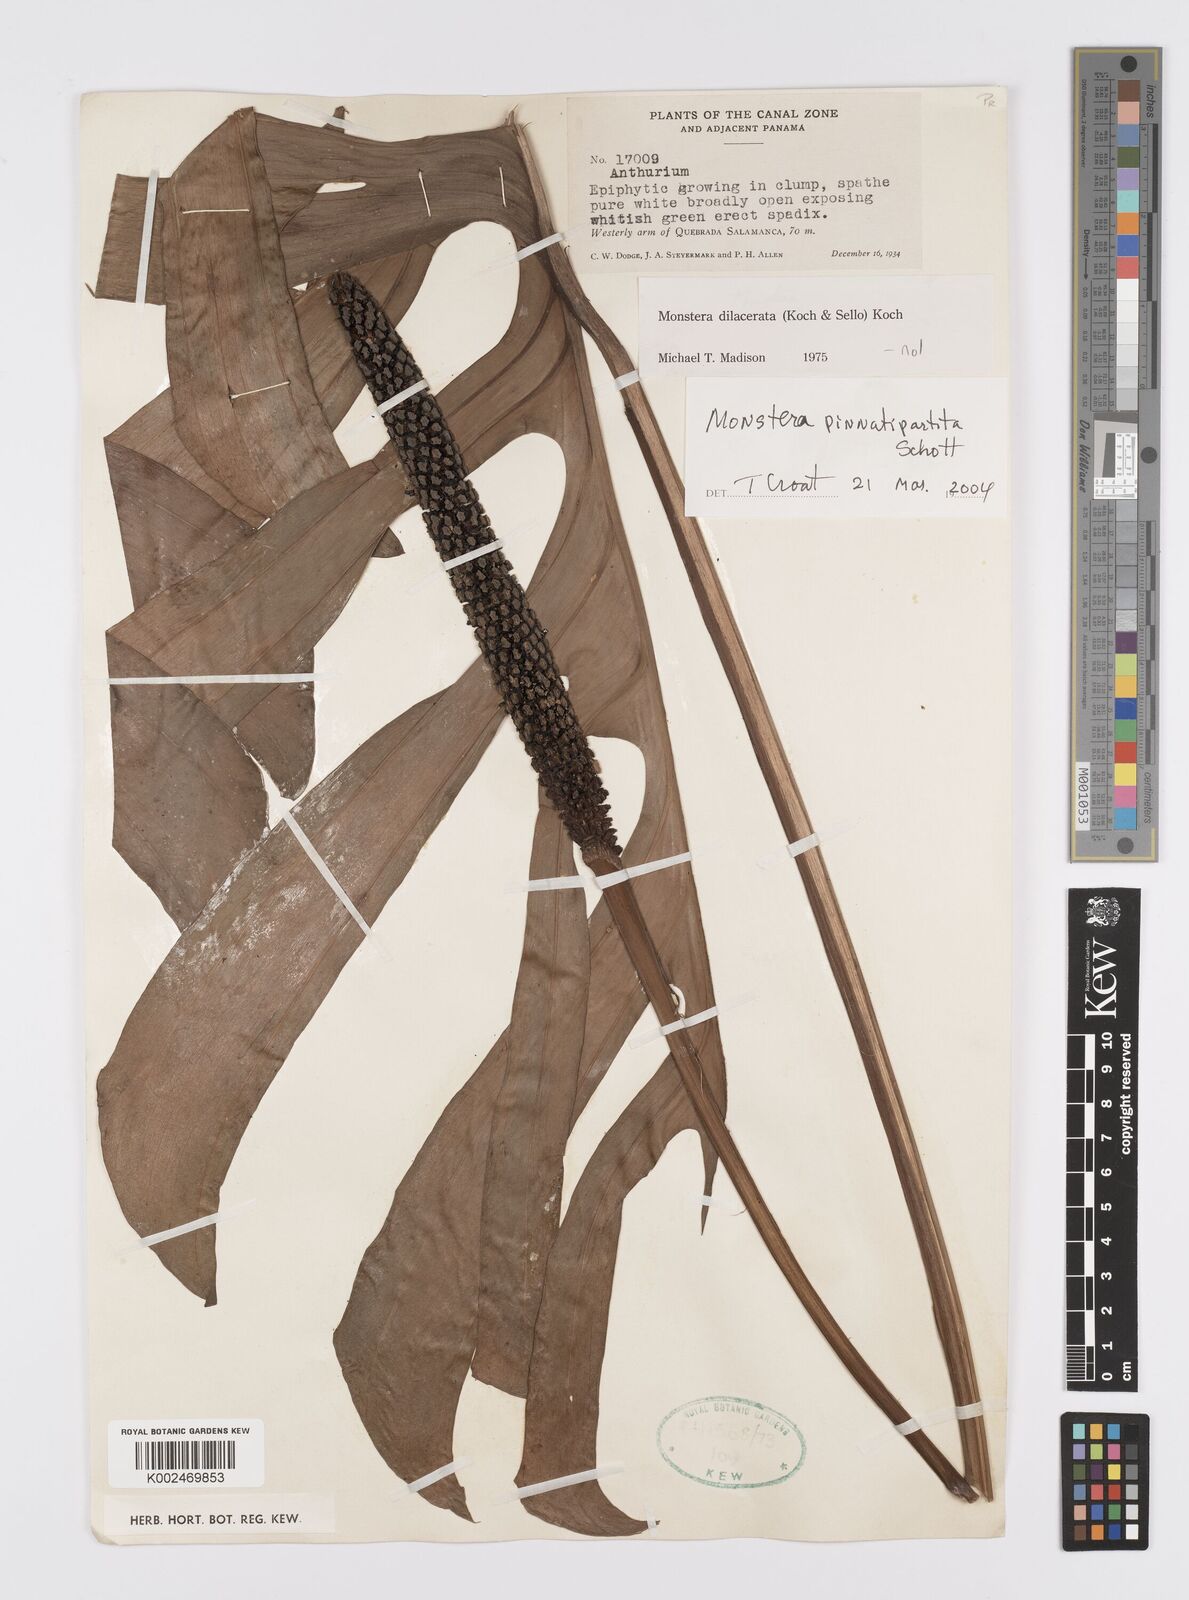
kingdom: Plantae
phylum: Tracheophyta
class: Liliopsida
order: Alismatales
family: Araceae
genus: Monstera
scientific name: Monstera pinnatipartita
